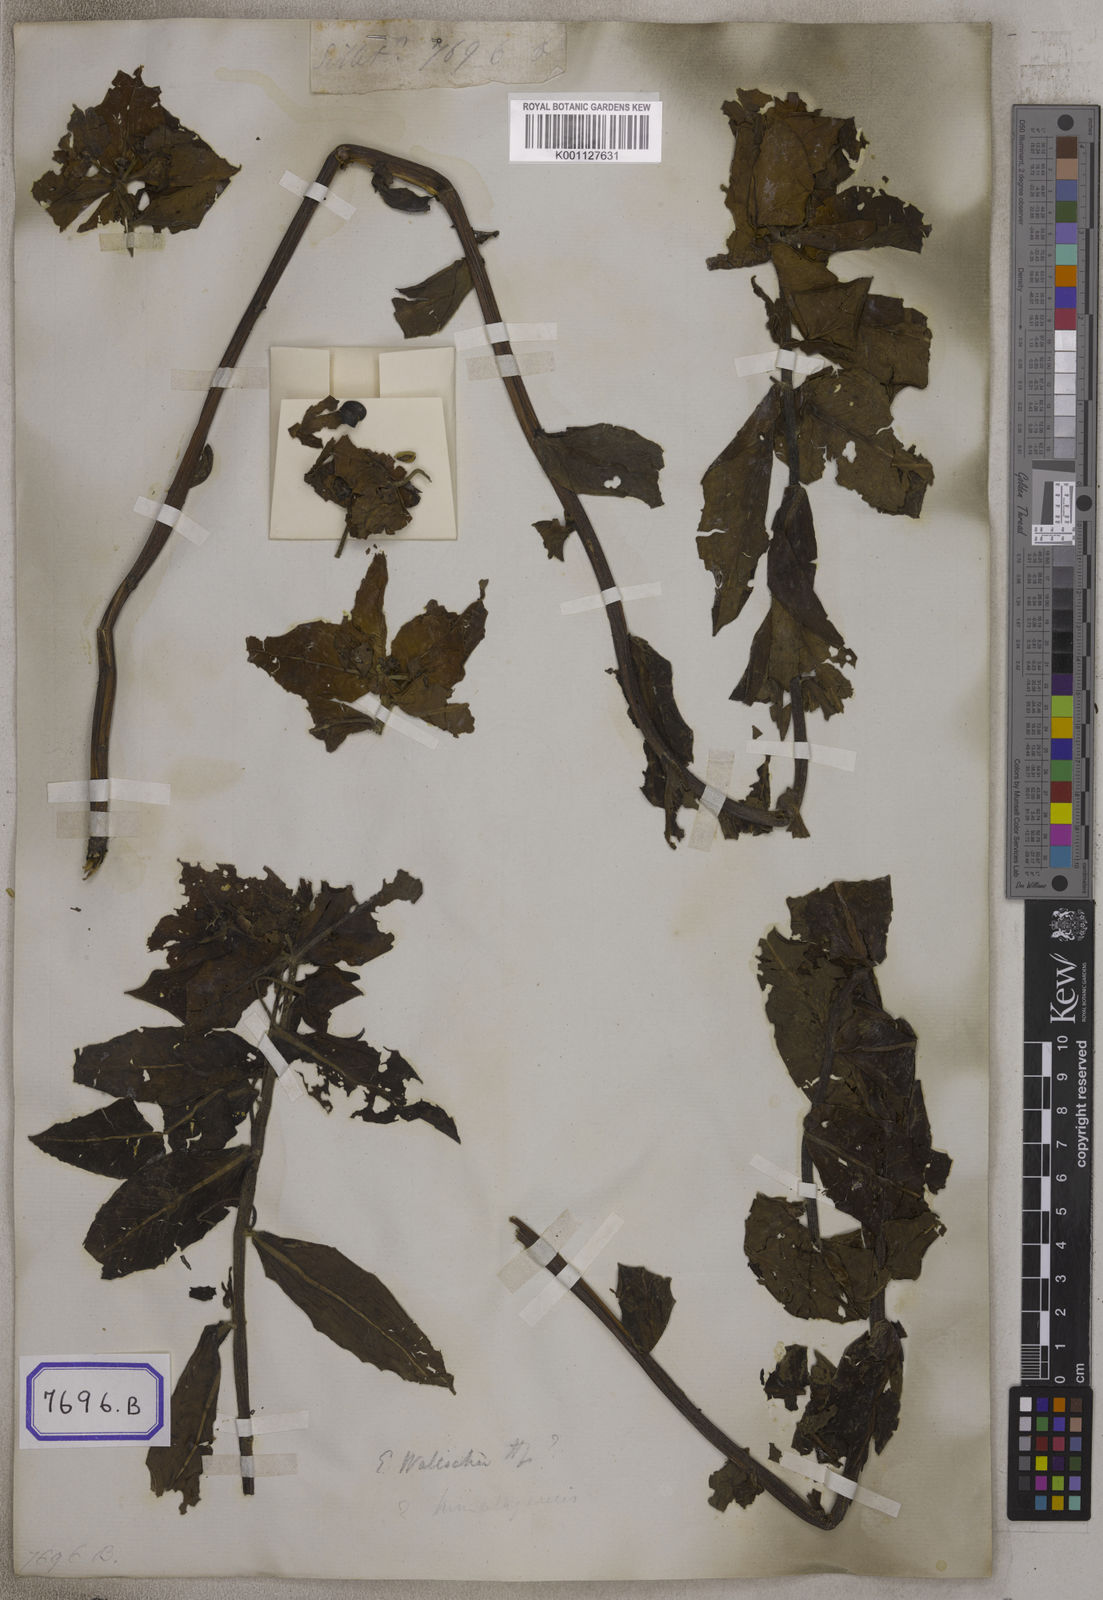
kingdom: Plantae
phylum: Tracheophyta
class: Magnoliopsida
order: Malpighiales
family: Euphorbiaceae
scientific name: Euphorbiaceae
